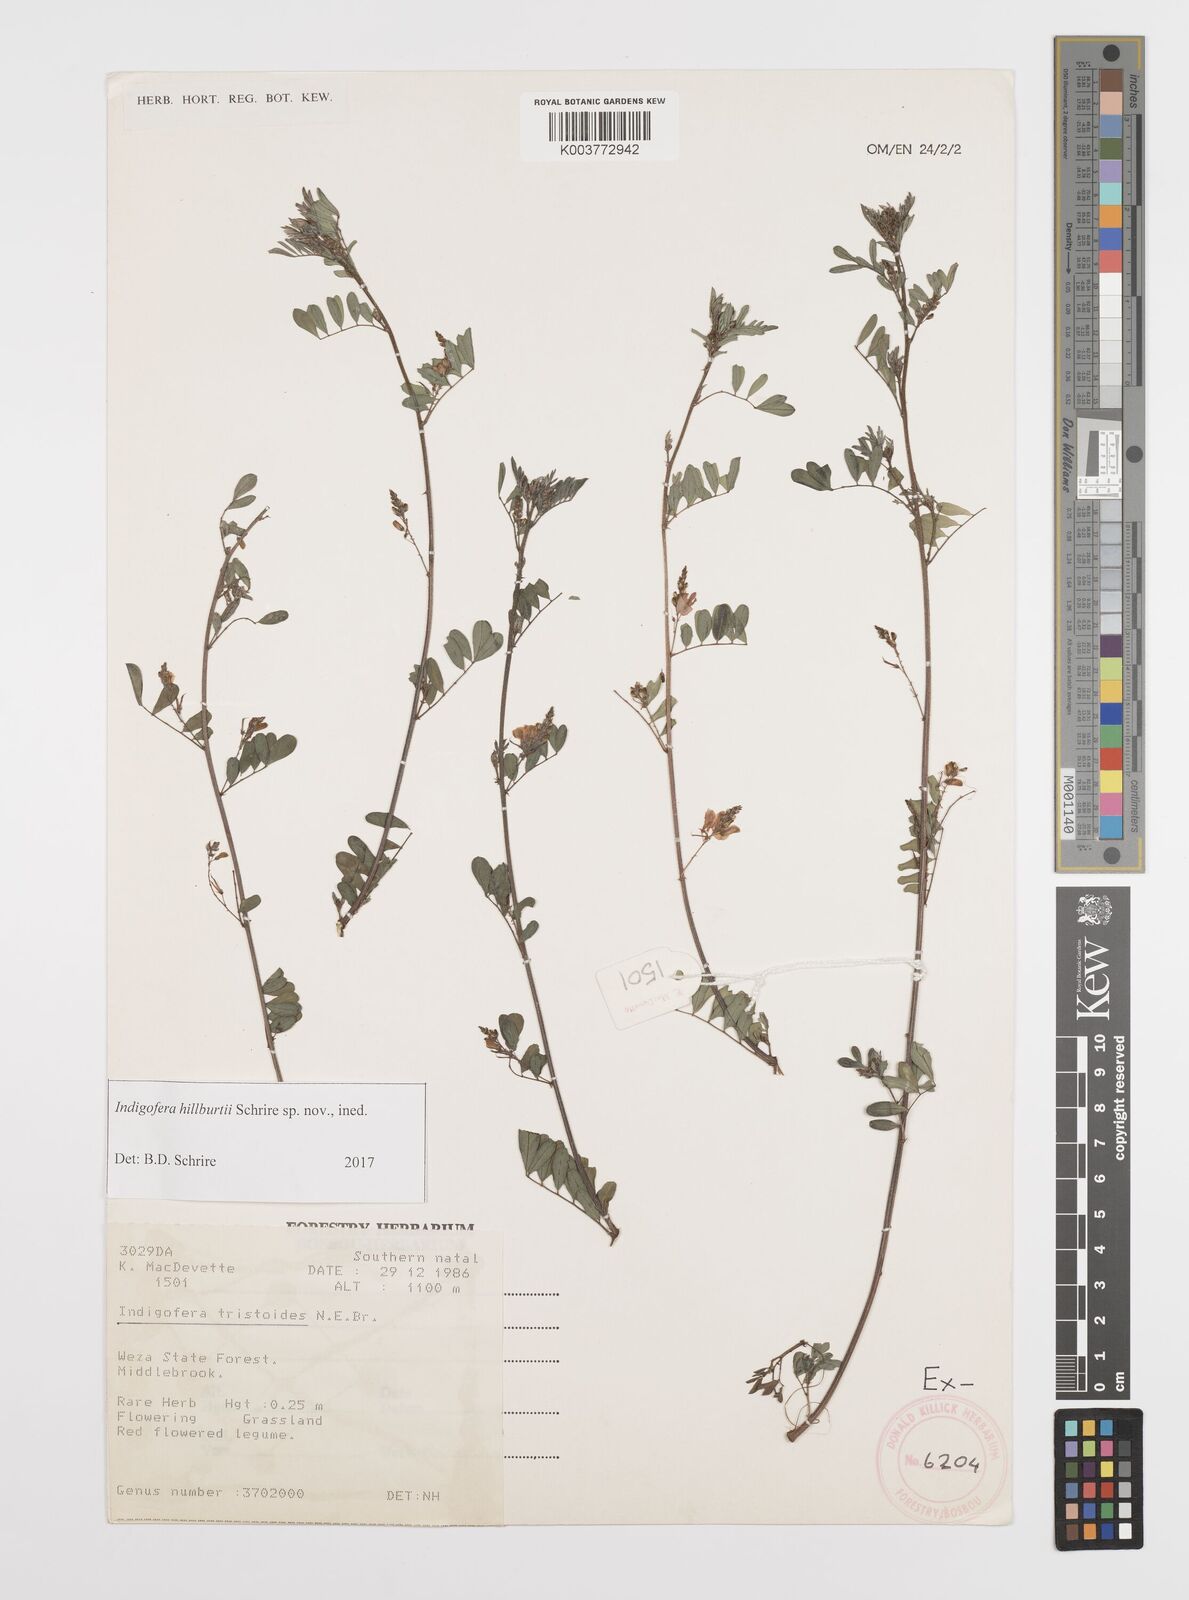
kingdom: Plantae
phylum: Tracheophyta
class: Magnoliopsida
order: Fabales
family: Fabaceae
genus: Indigofera
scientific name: Indigofera
